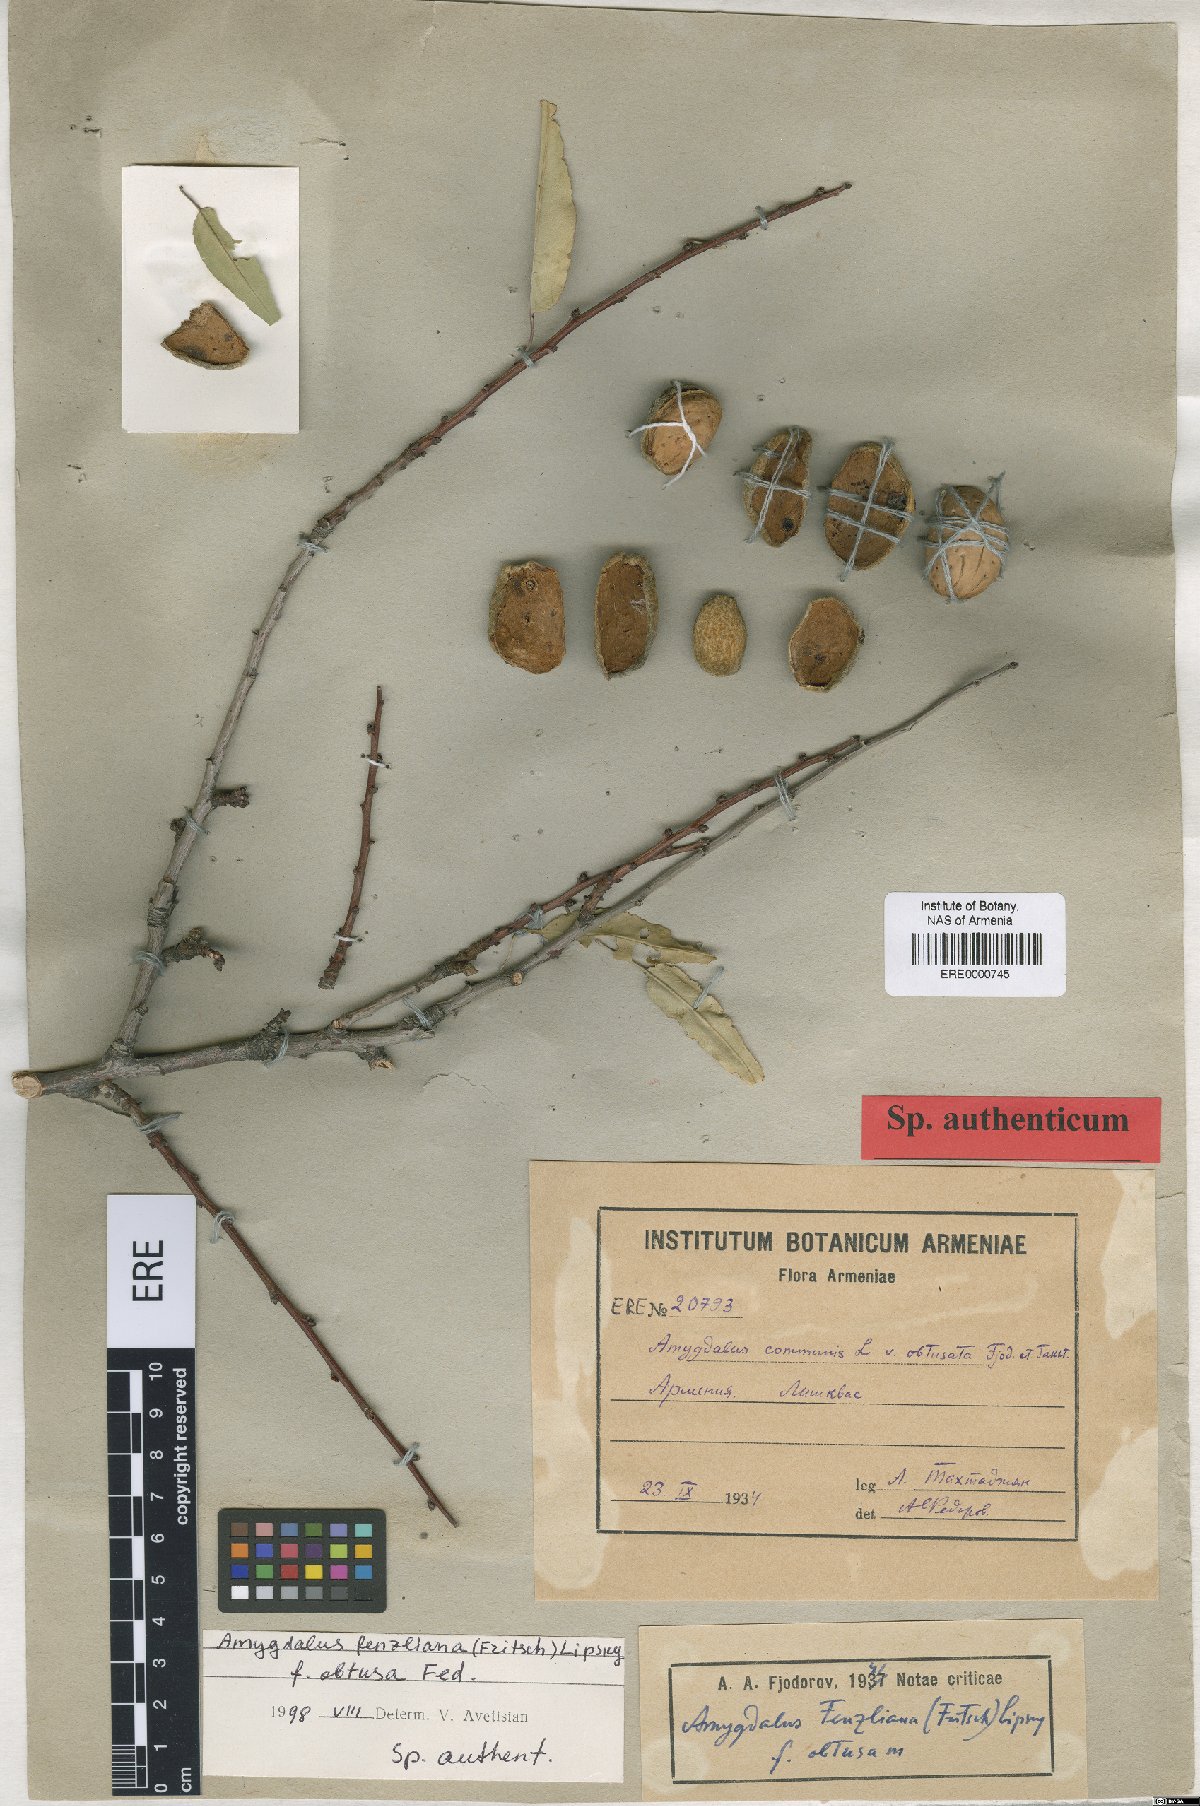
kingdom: Plantae
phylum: Tracheophyta
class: Magnoliopsida
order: Rosales
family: Rosaceae
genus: Prunus
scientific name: Prunus fenzliana
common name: Fenzls almond
